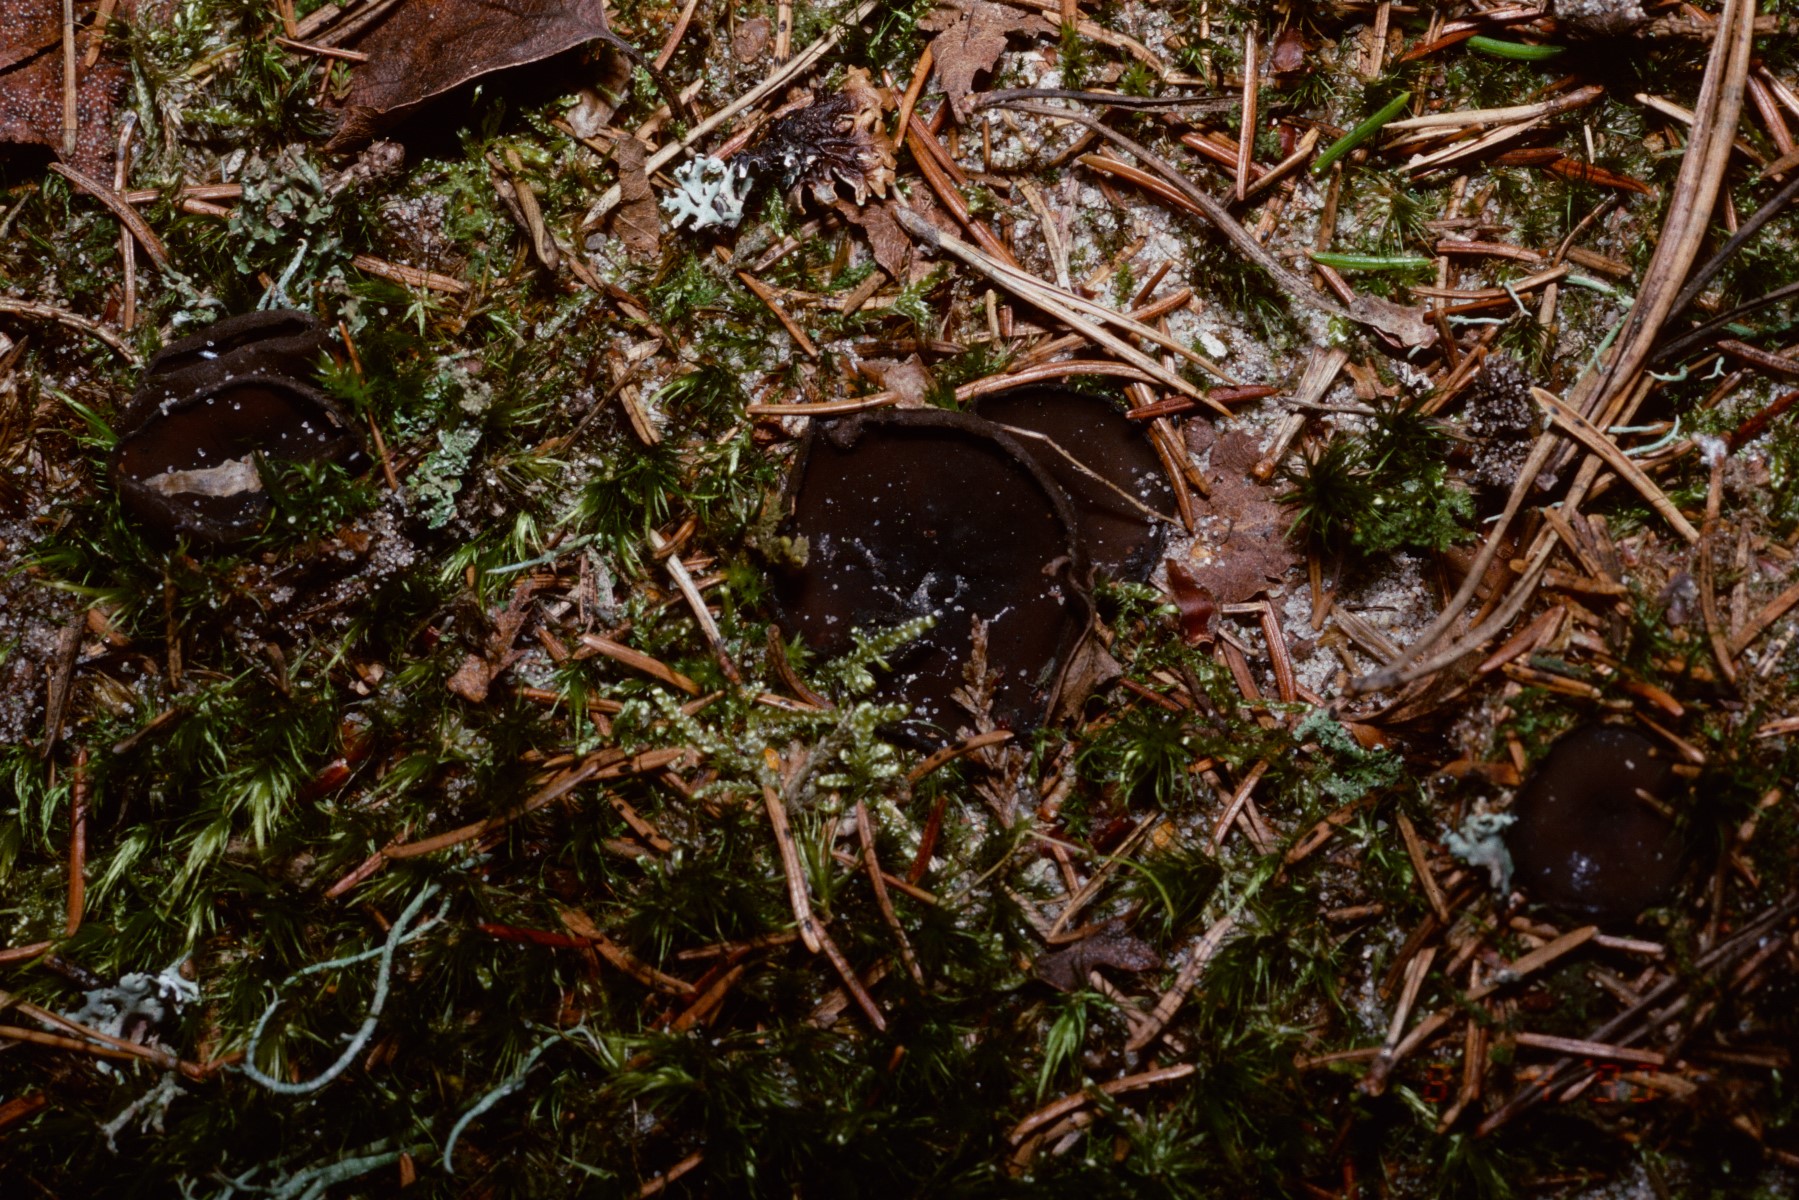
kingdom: Fungi
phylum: Ascomycota
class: Pezizomycetes
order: Pezizales
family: Sarcosomataceae
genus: Pseudoplectania
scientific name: Pseudoplectania nigrella
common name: almindelig sortbæger
